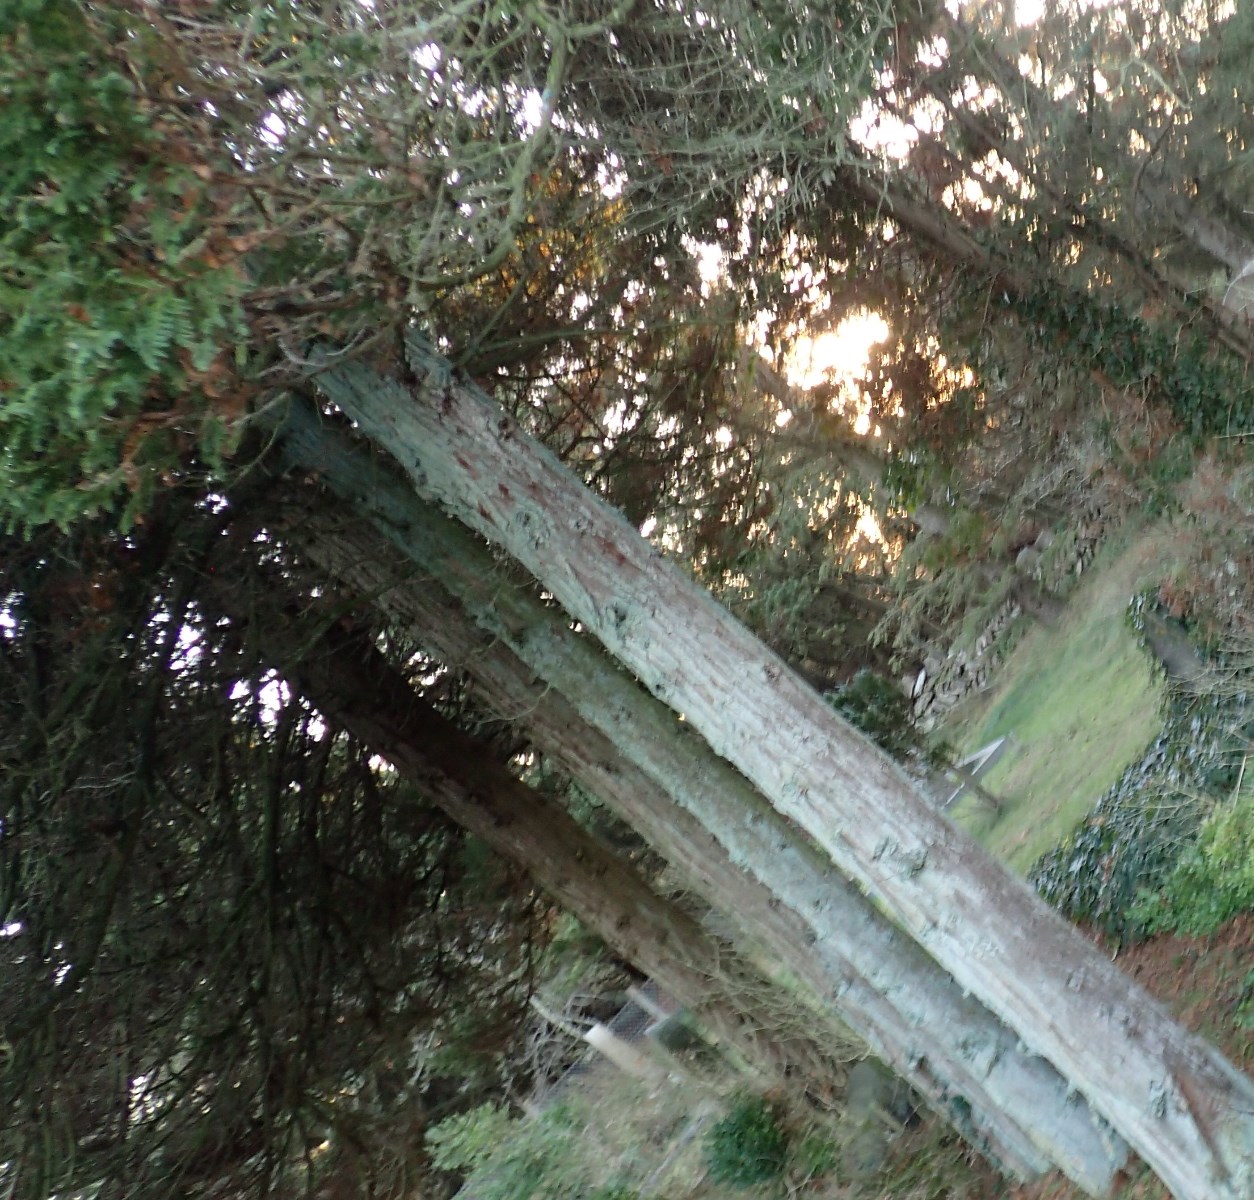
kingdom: Fungi
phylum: Basidiomycota
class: Agaricomycetes
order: Geastrales
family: Geastraceae
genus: Geastrum
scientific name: Geastrum fimbriatum
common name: frynset stjernebold
